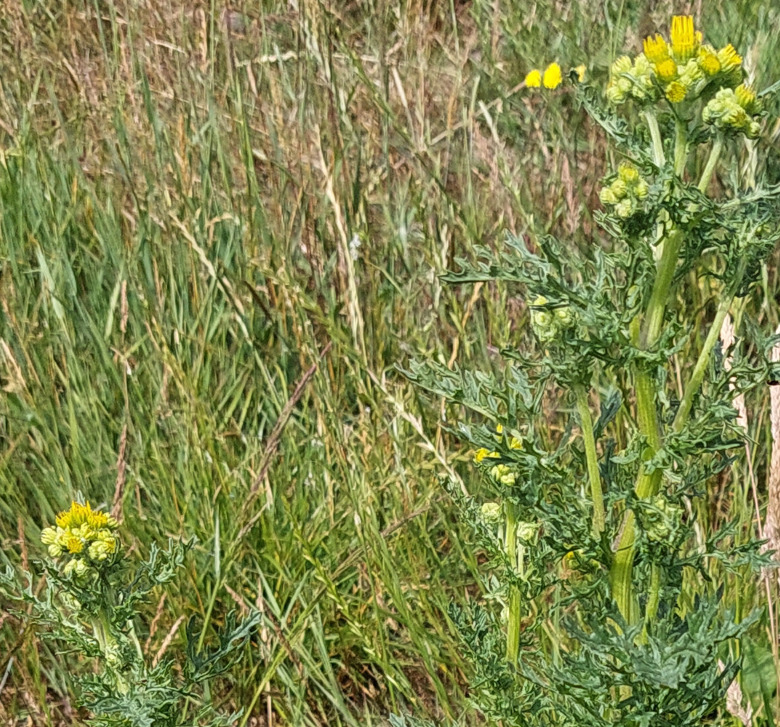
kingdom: Plantae
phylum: Tracheophyta
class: Magnoliopsida
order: Asterales
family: Asteraceae
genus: Jacobaea
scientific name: Jacobaea vulgaris
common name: Eng-brandbæger
